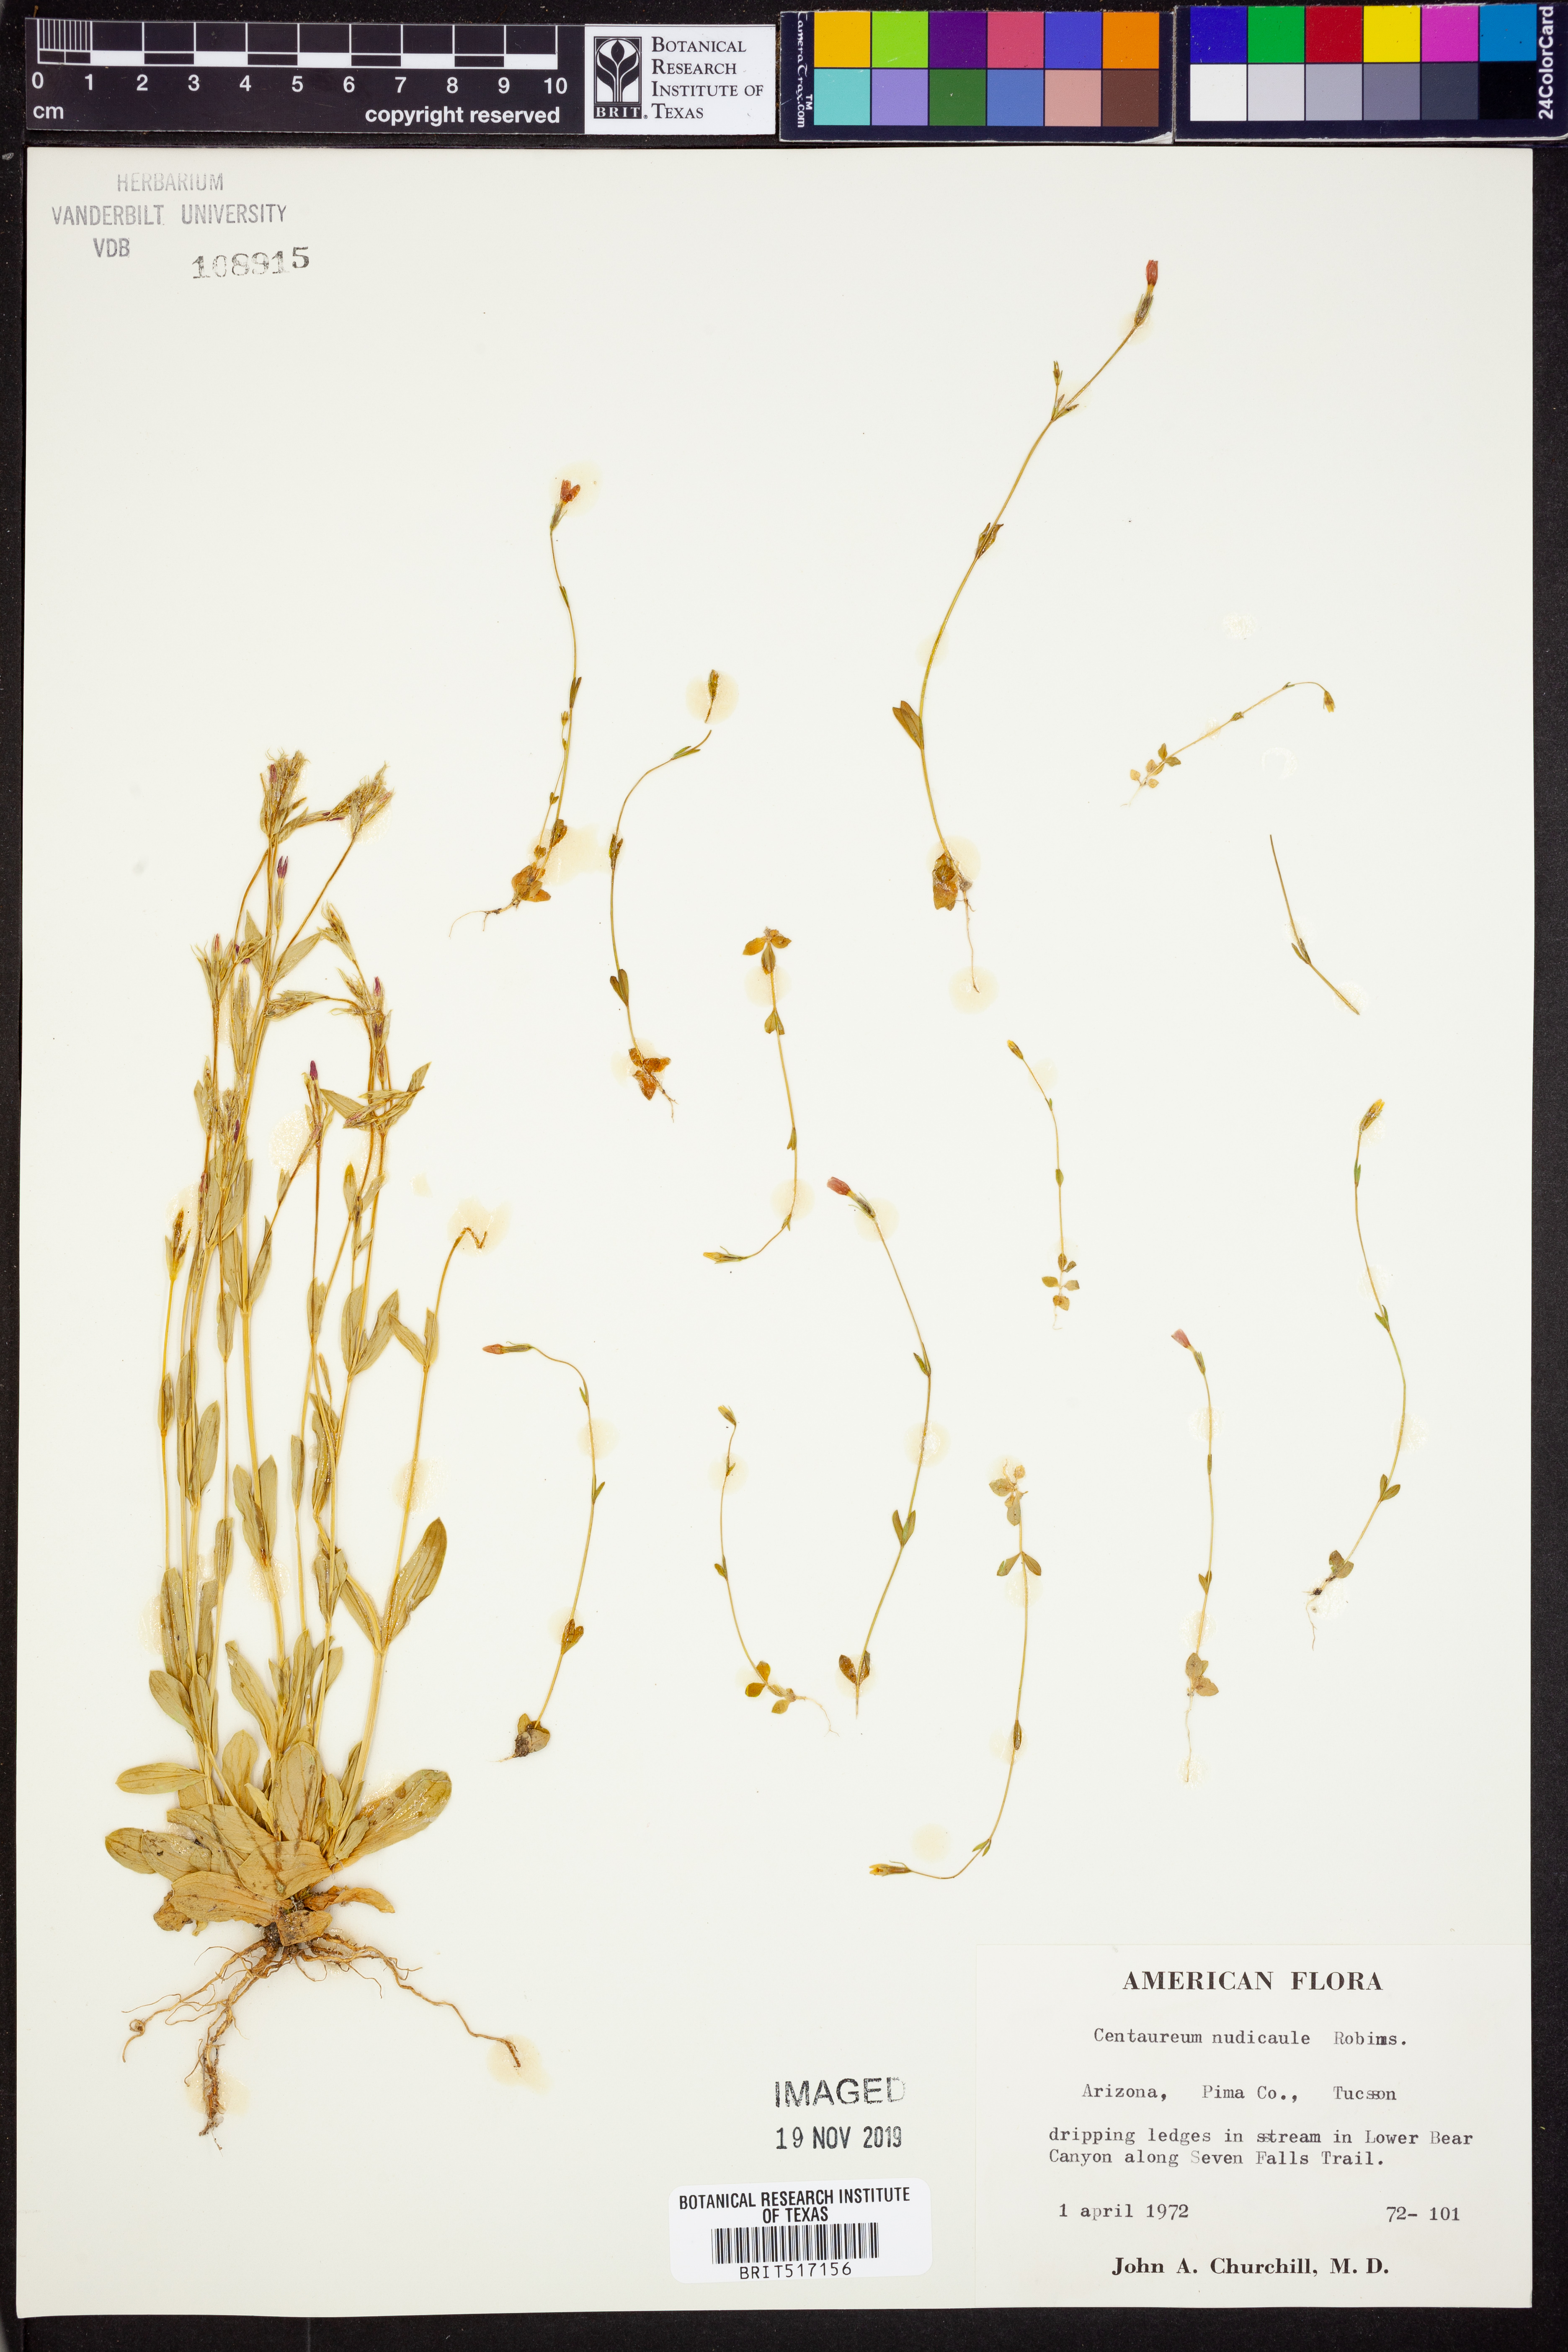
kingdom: Plantae
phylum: Tracheophyta
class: Magnoliopsida
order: Gentianales
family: Gentianaceae
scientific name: Gentianaceae
